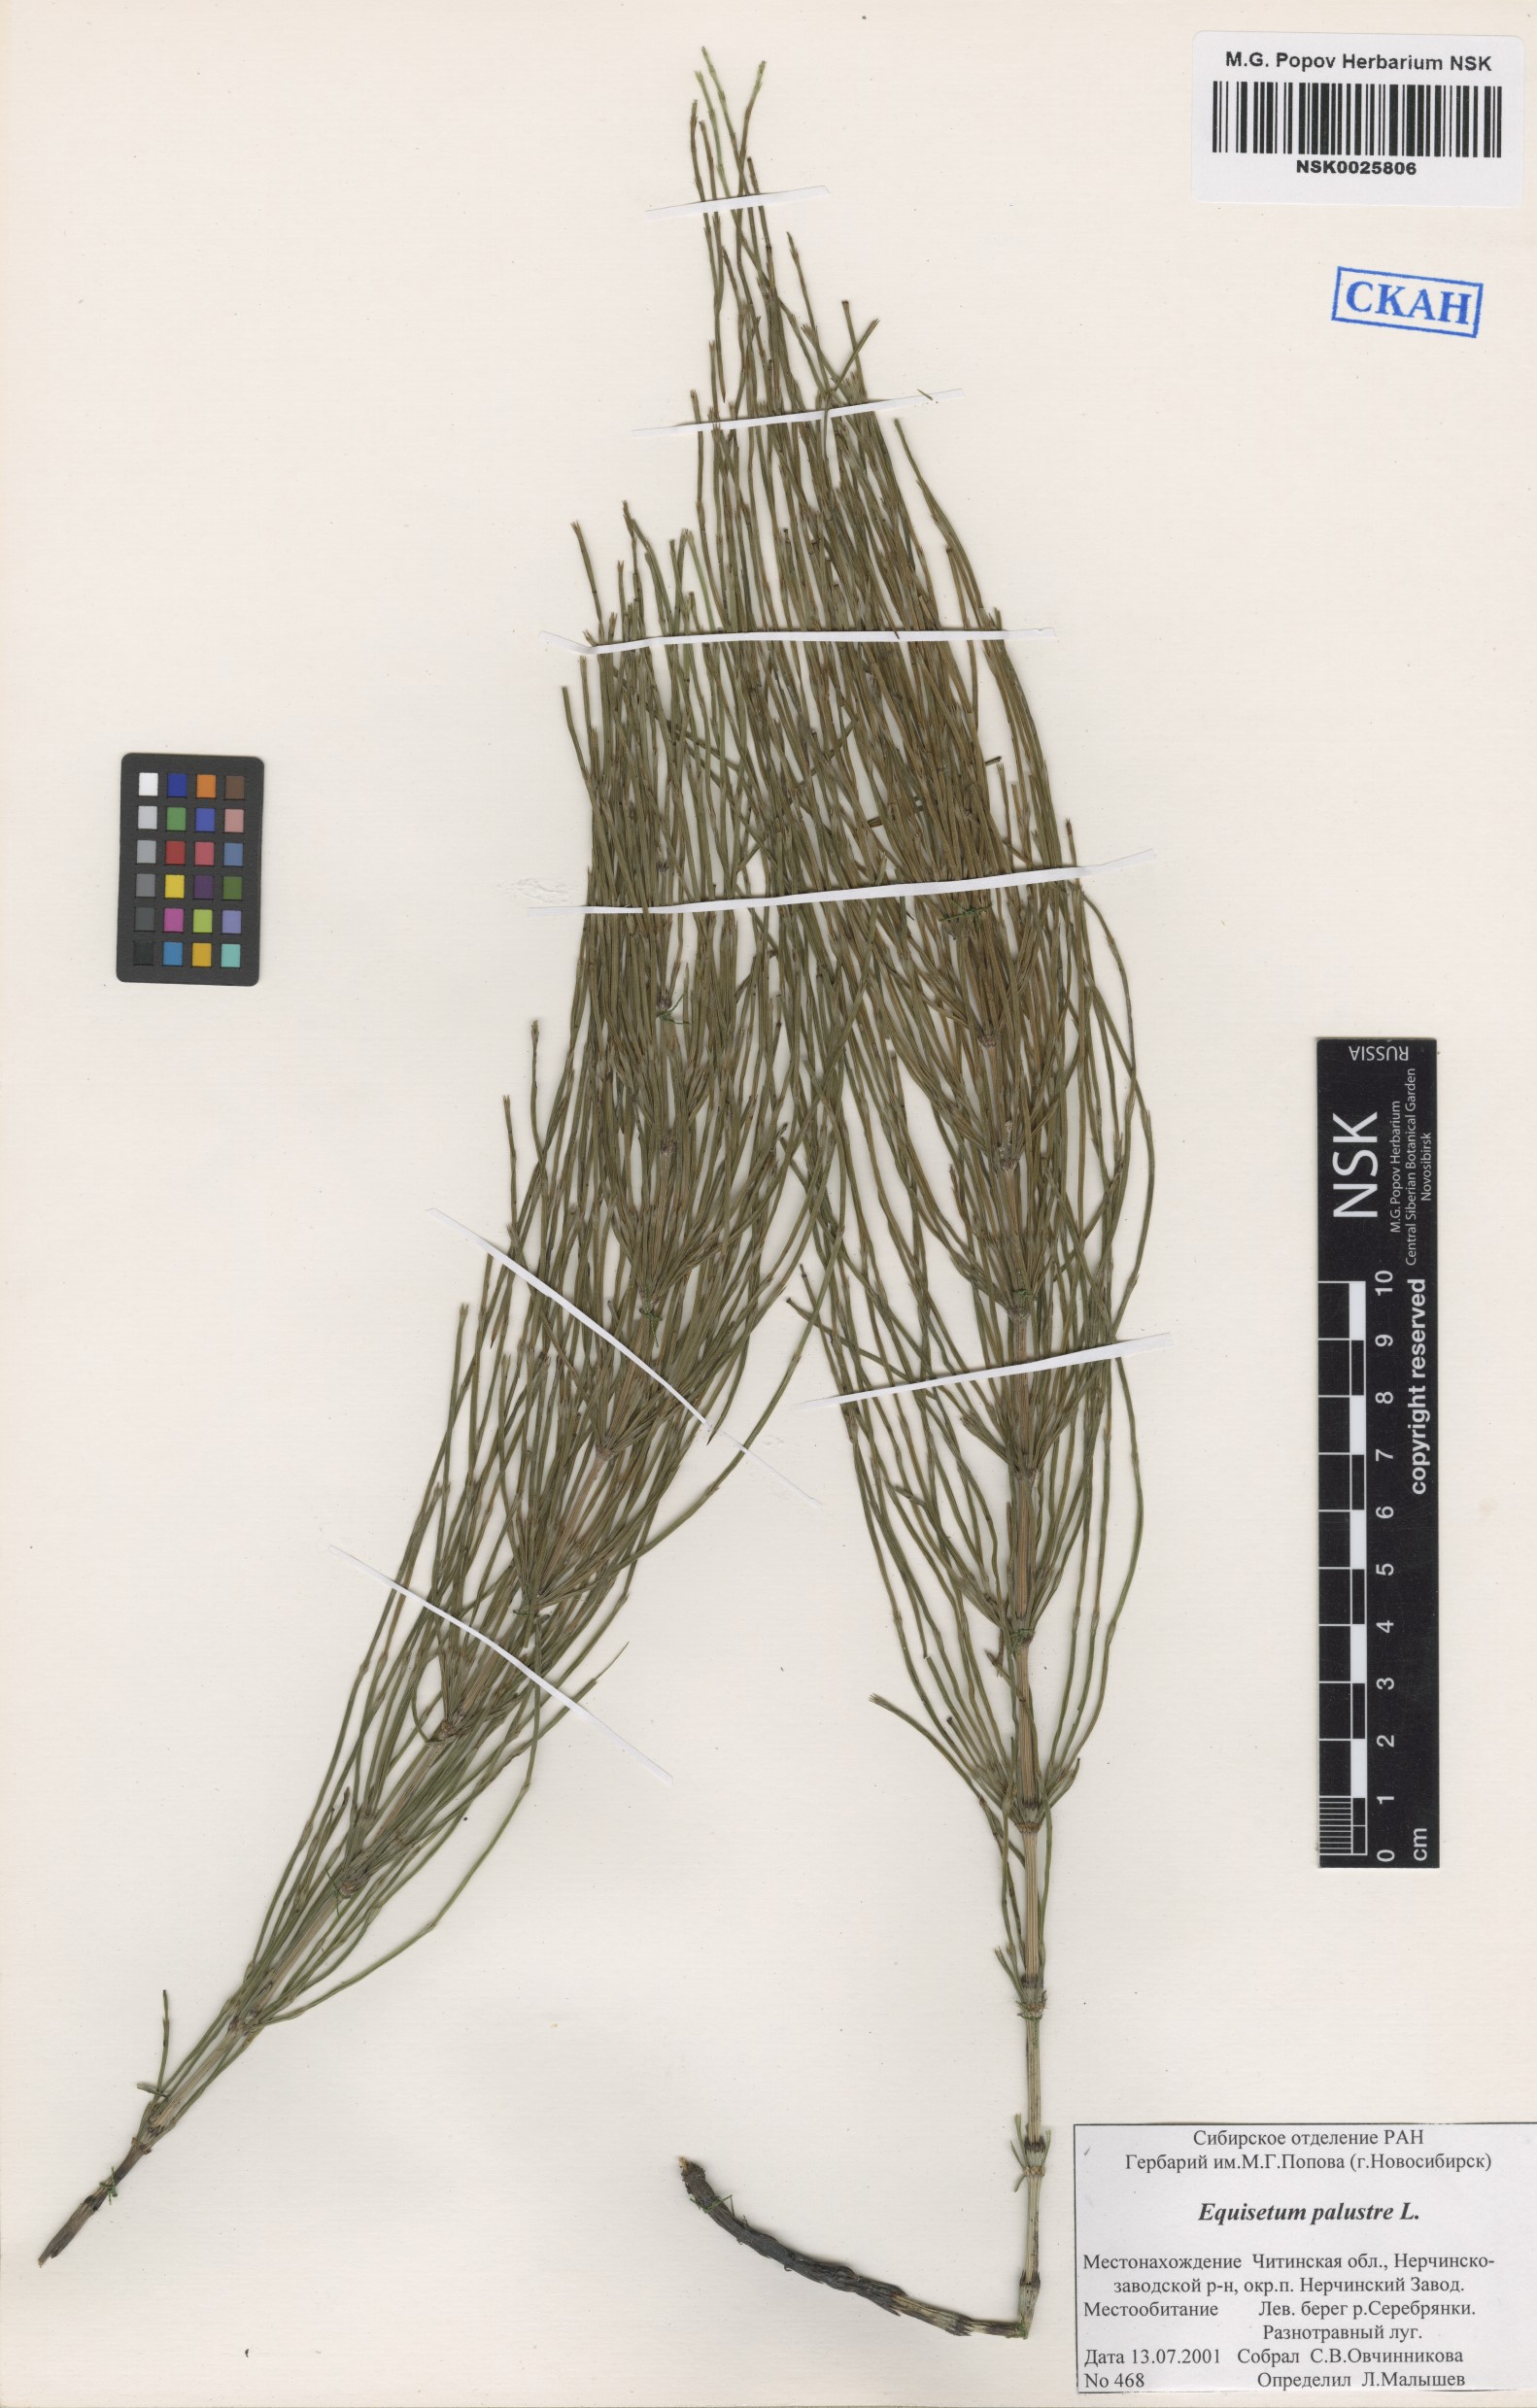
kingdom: Plantae
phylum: Tracheophyta
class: Polypodiopsida
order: Equisetales
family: Equisetaceae
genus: Equisetum
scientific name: Equisetum palustre
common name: Marsh horsetail
